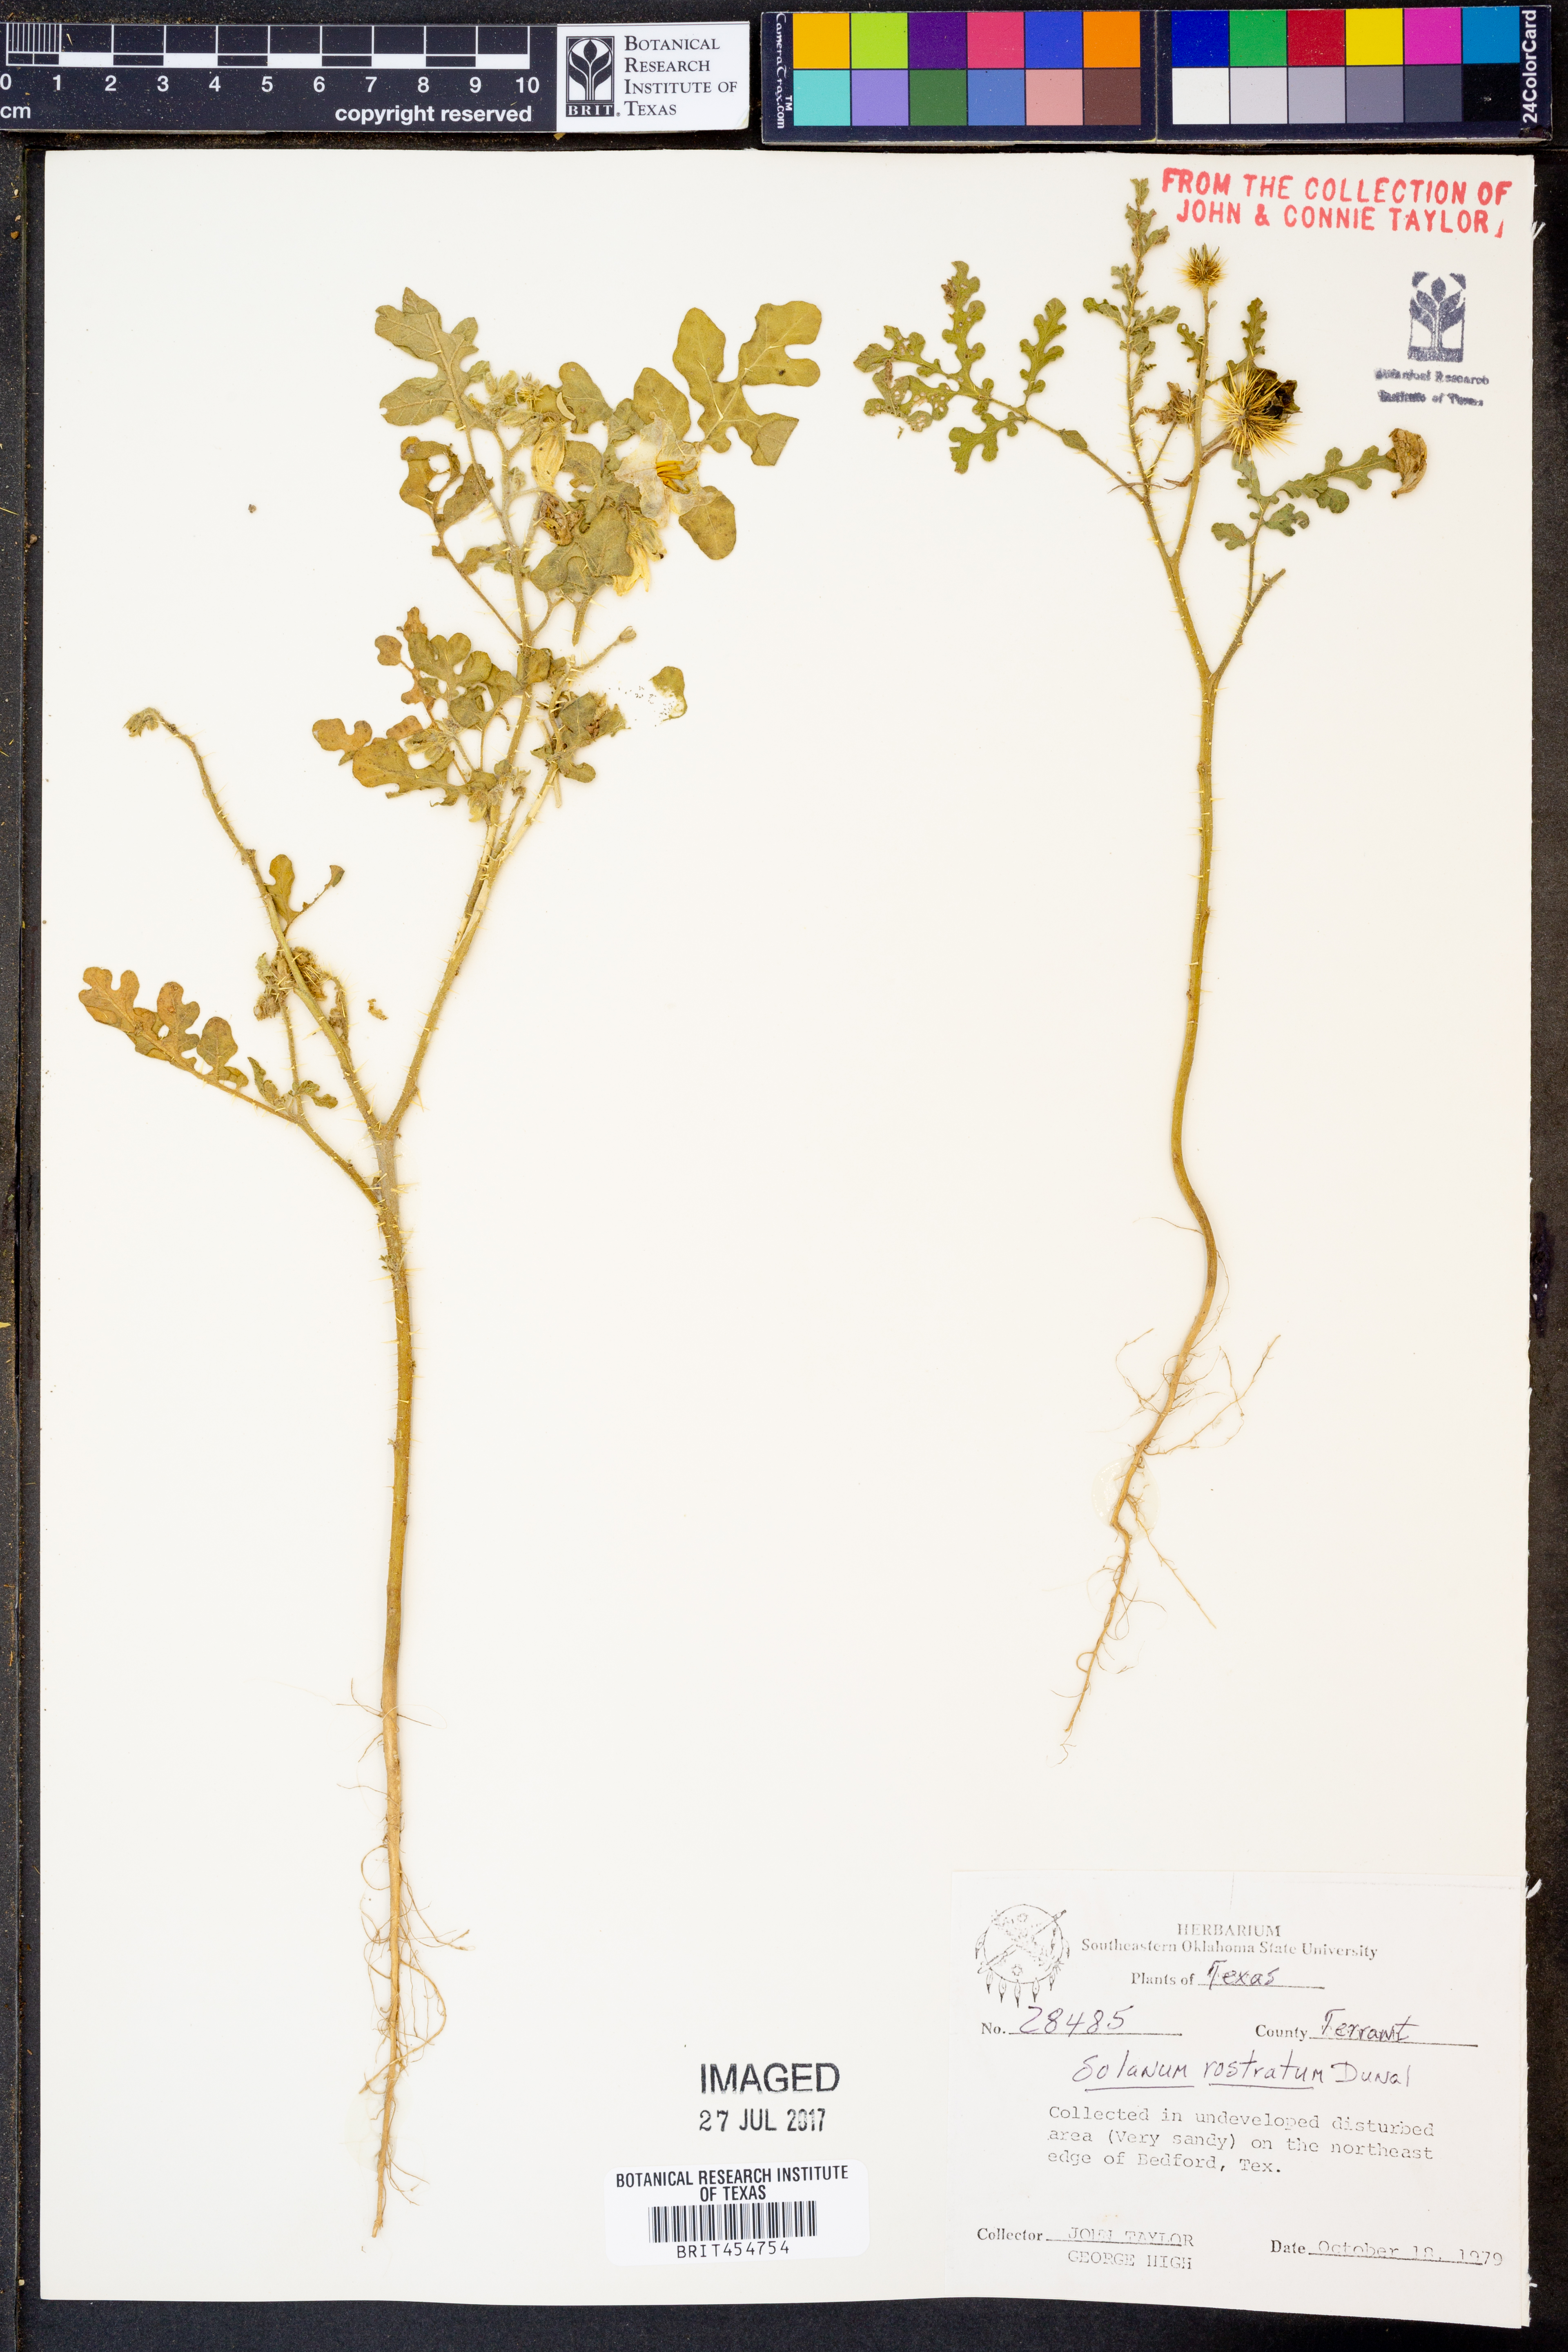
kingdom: Plantae
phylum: Tracheophyta
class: Magnoliopsida
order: Solanales
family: Solanaceae
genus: Solanum
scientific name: Solanum angustifolium
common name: Buffalobur nightshade
